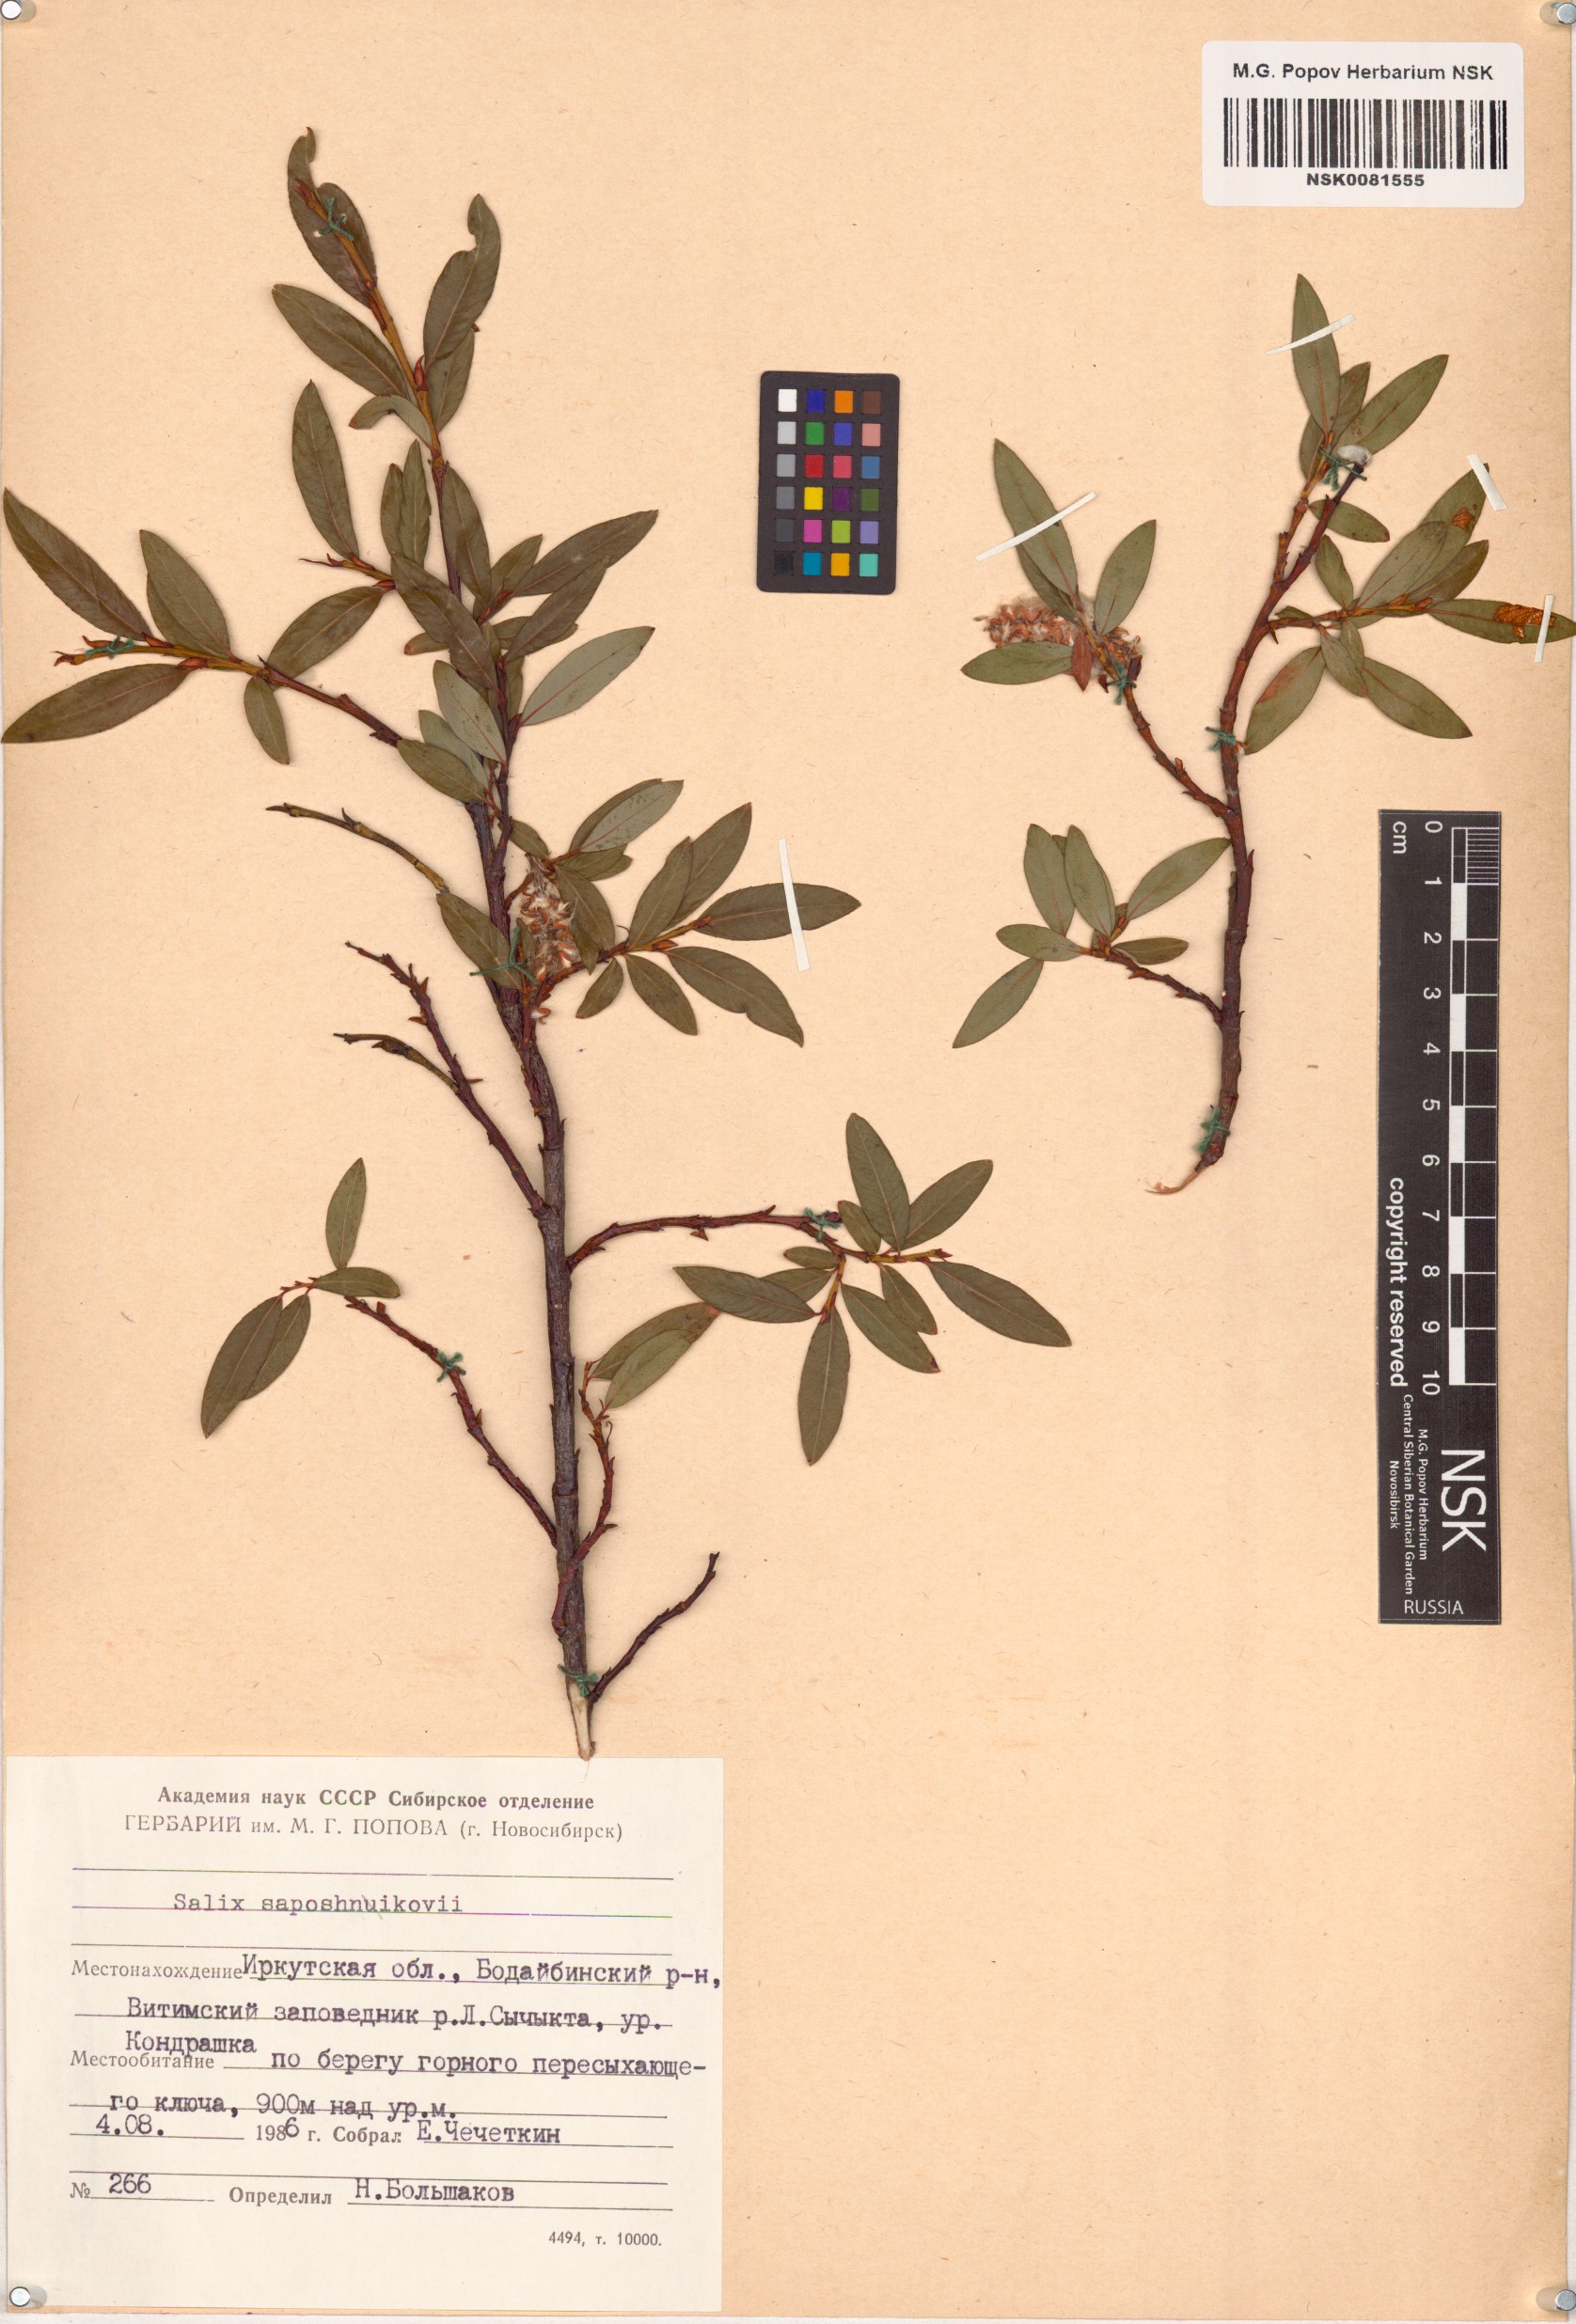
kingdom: Plantae
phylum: Tracheophyta
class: Magnoliopsida
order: Malpighiales
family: Salicaceae
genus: Salix
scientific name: Salix saposhnikovii
